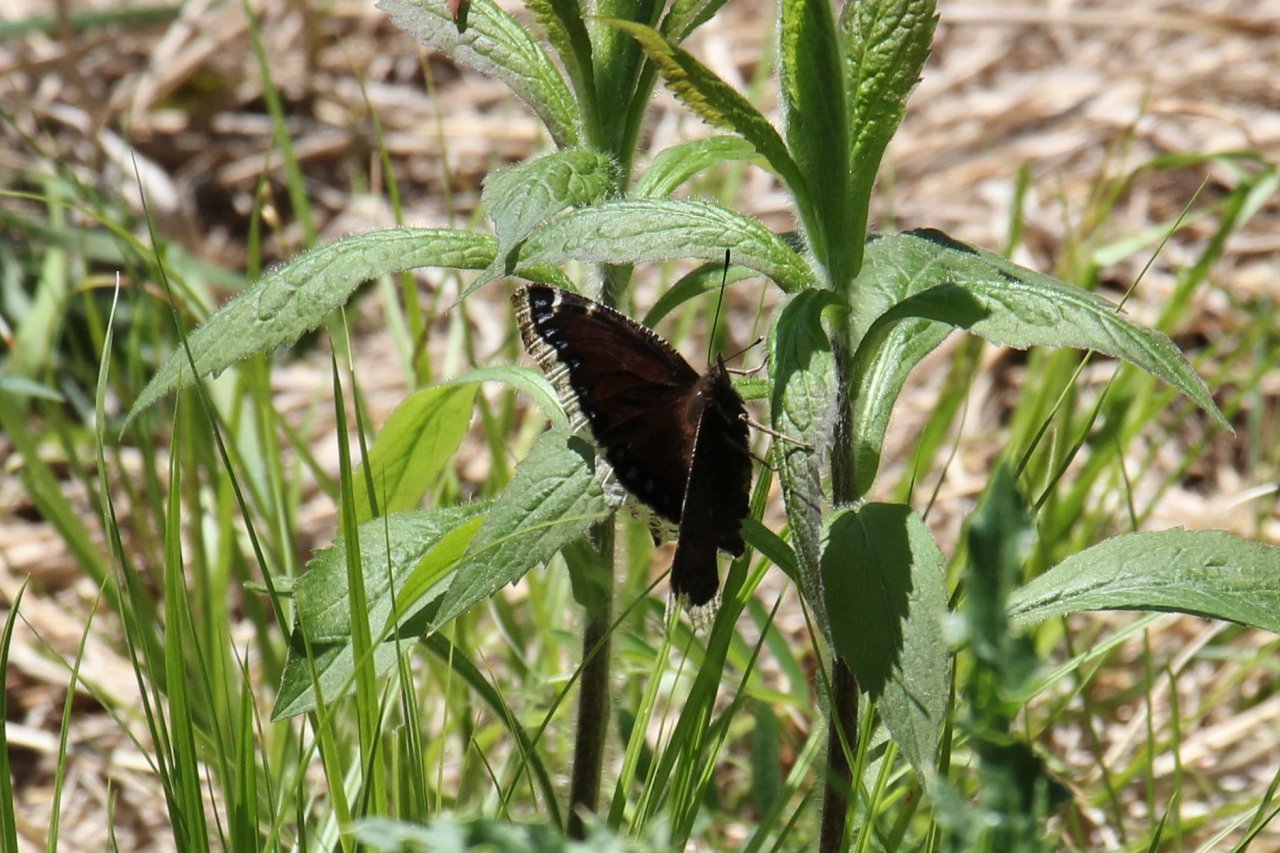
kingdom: Animalia
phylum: Arthropoda
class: Insecta
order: Lepidoptera
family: Nymphalidae
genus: Nymphalis
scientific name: Nymphalis antiopa
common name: Mourning Cloak
